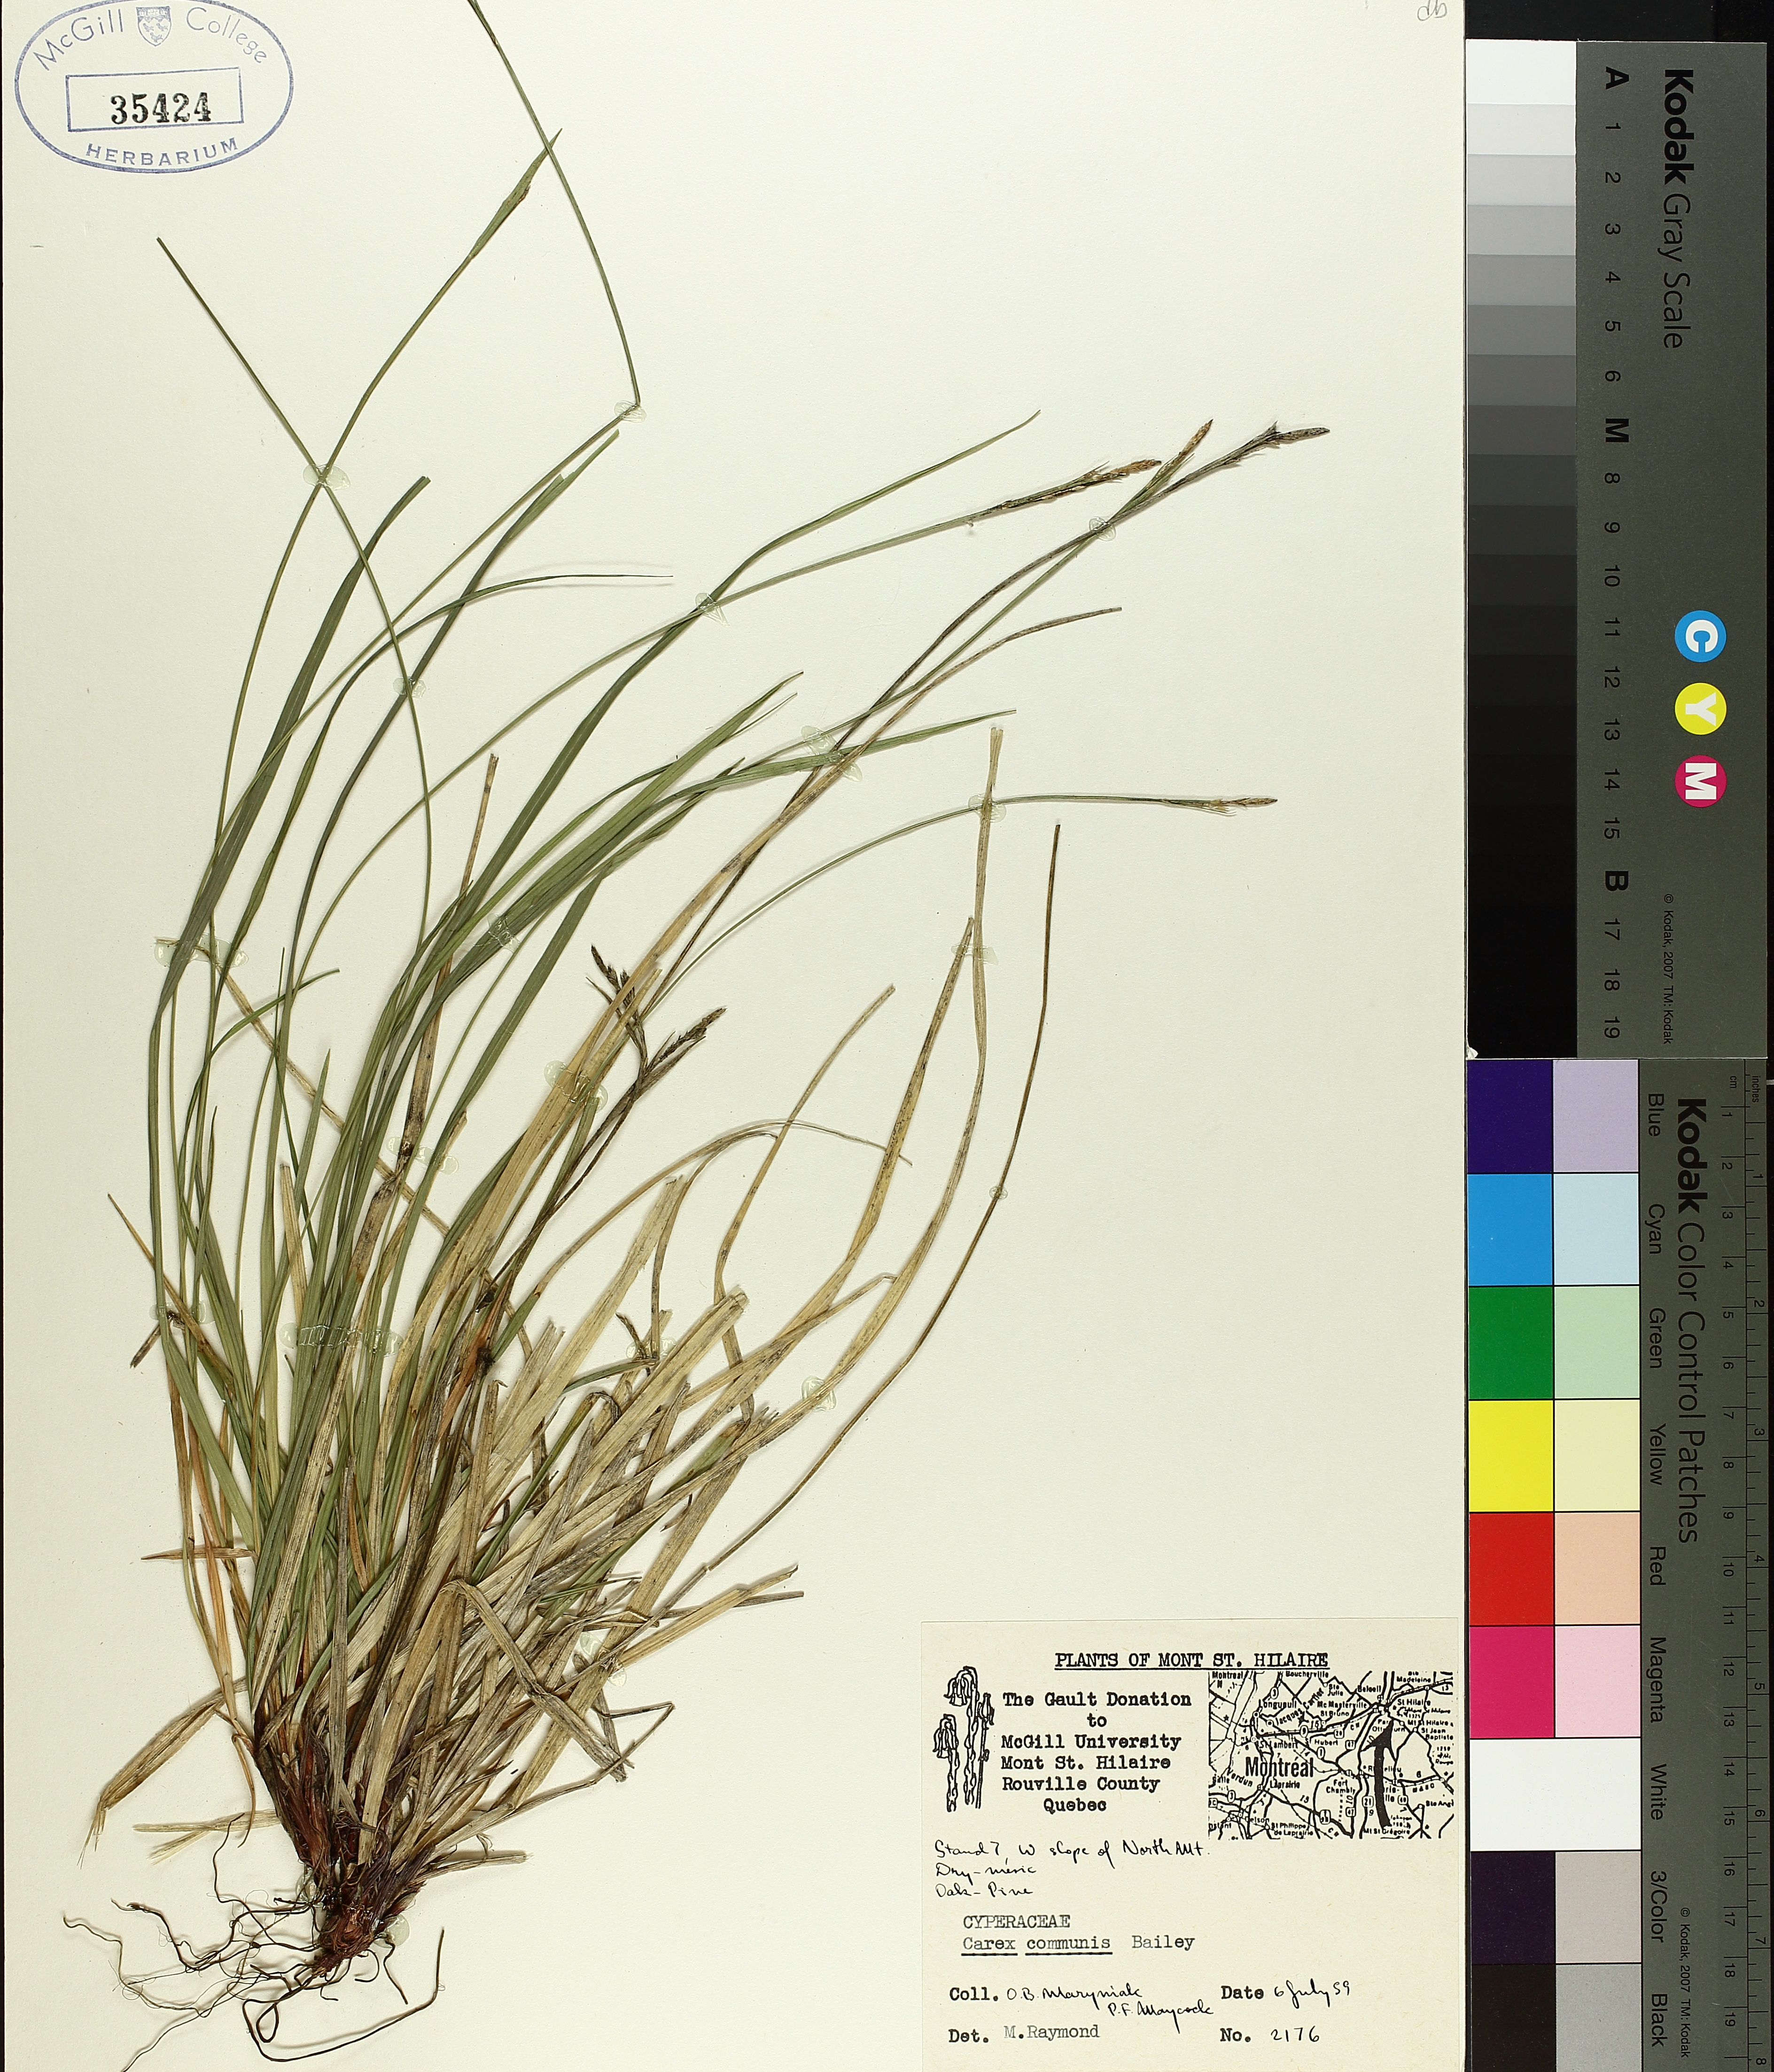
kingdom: Plantae
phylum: Tracheophyta
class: Liliopsida
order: Poales
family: Cyperaceae
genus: Carex
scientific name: Carex communis
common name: Colonial oak sedge
